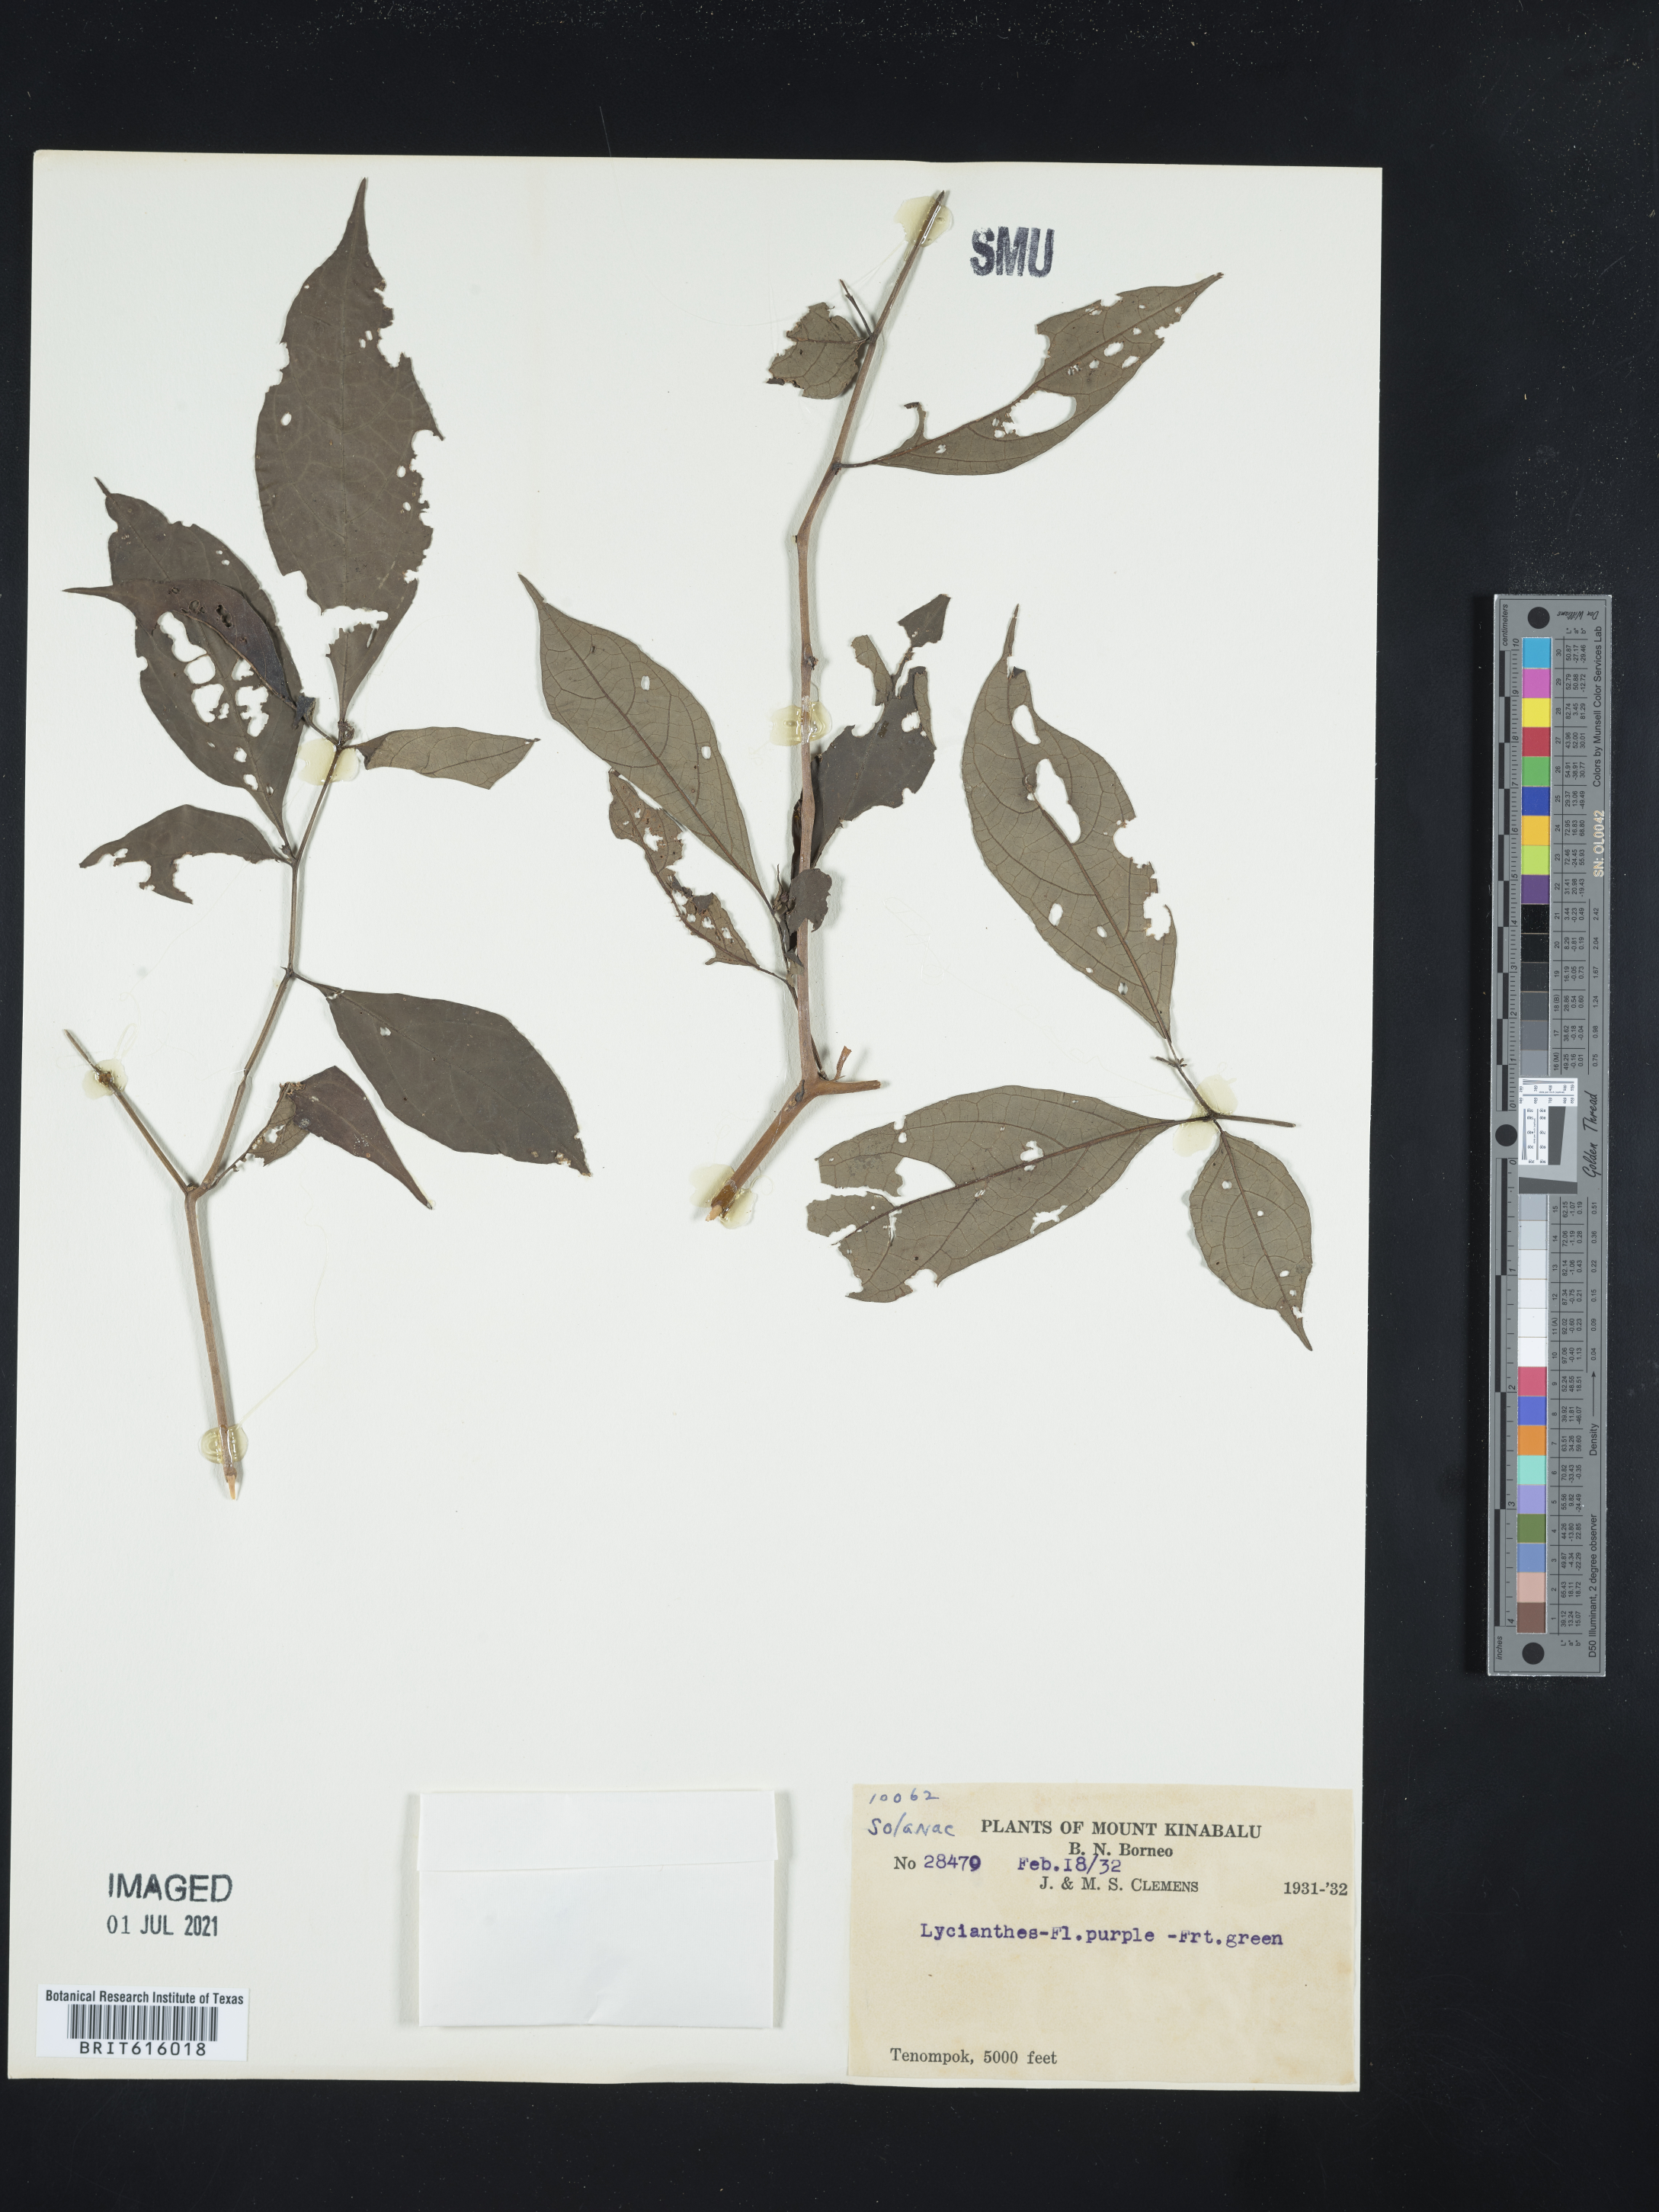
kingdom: Plantae
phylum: Tracheophyta
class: Magnoliopsida
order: Solanales
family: Solanaceae
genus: Lycianthes
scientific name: Lycianthes
